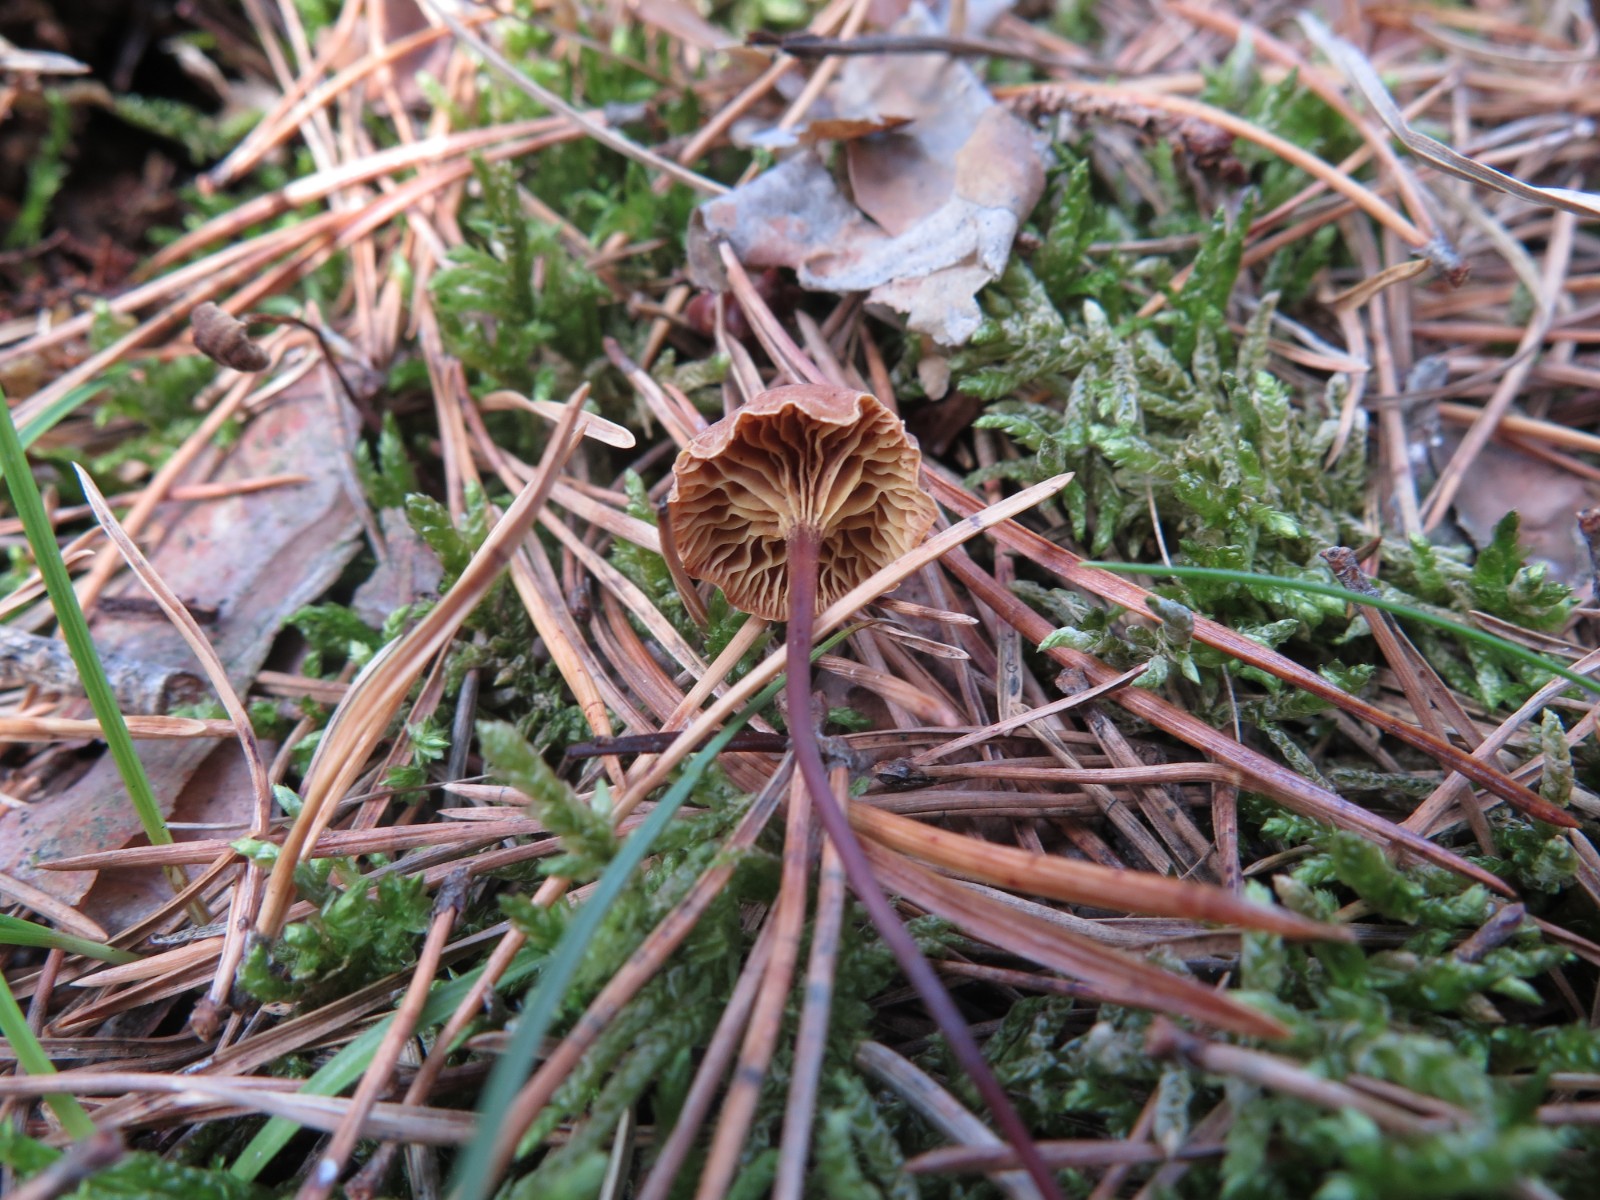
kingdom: Fungi
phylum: Basidiomycota
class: Agaricomycetes
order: Agaricales
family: Mycenaceae
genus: Xeromphalina
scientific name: Xeromphalina cauticinalis
